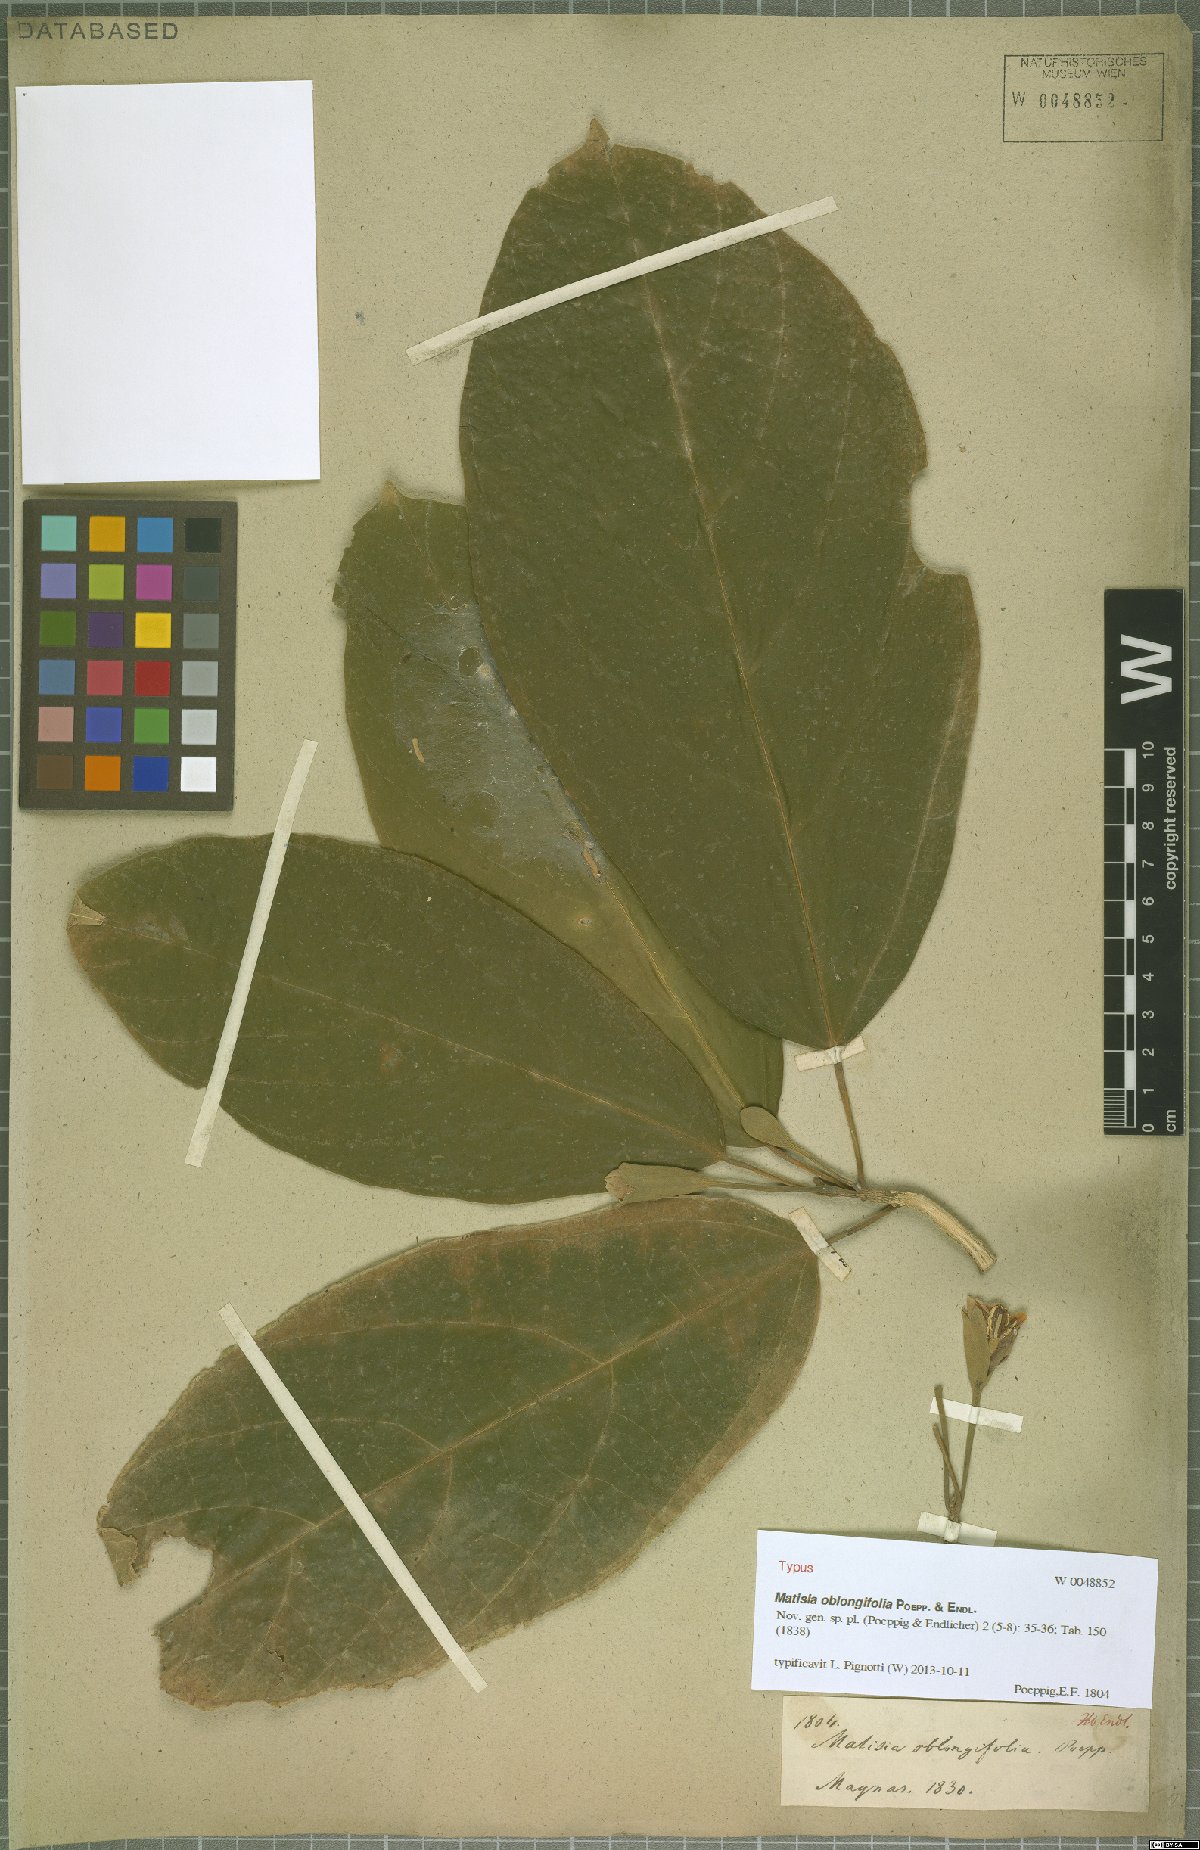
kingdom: Plantae
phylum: Tracheophyta
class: Magnoliopsida
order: Malvales
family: Malvaceae
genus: Matisia
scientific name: Matisia oblongifolia
